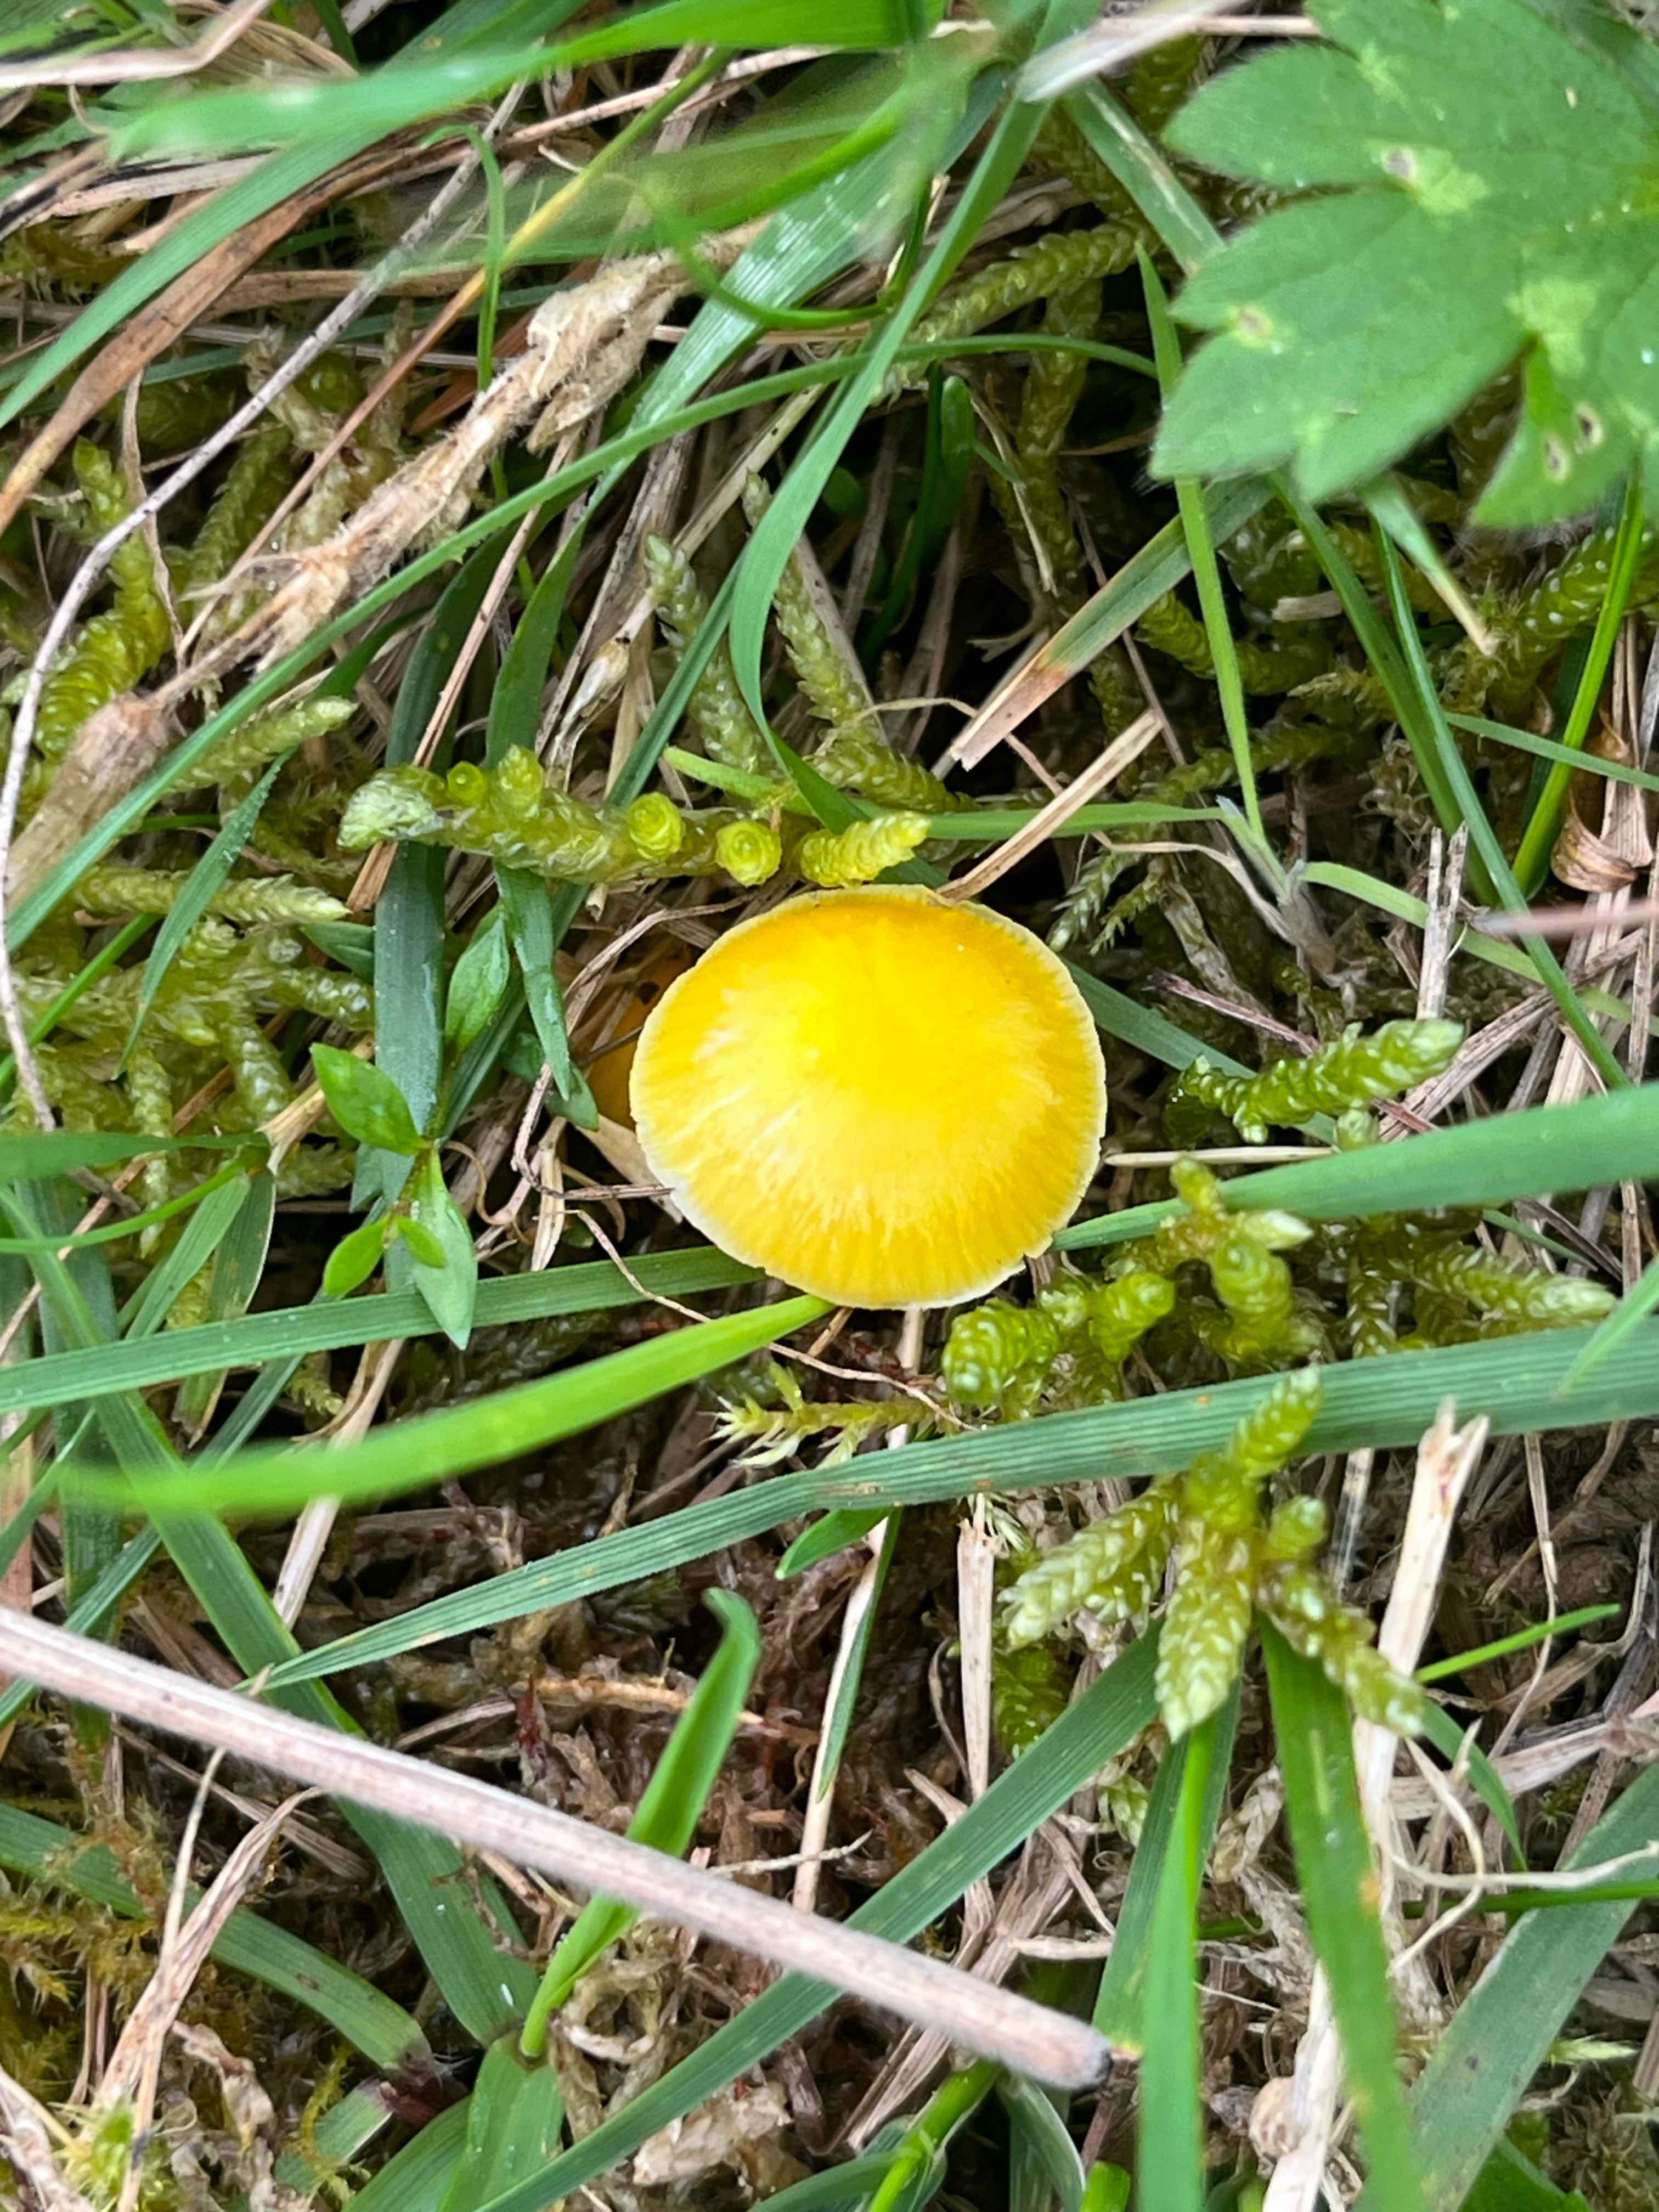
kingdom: Fungi
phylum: Basidiomycota
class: Agaricomycetes
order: Agaricales
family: Hygrophoraceae
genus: Hygrocybe
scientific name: Hygrocybe ceracea
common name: voksgul vokshat
